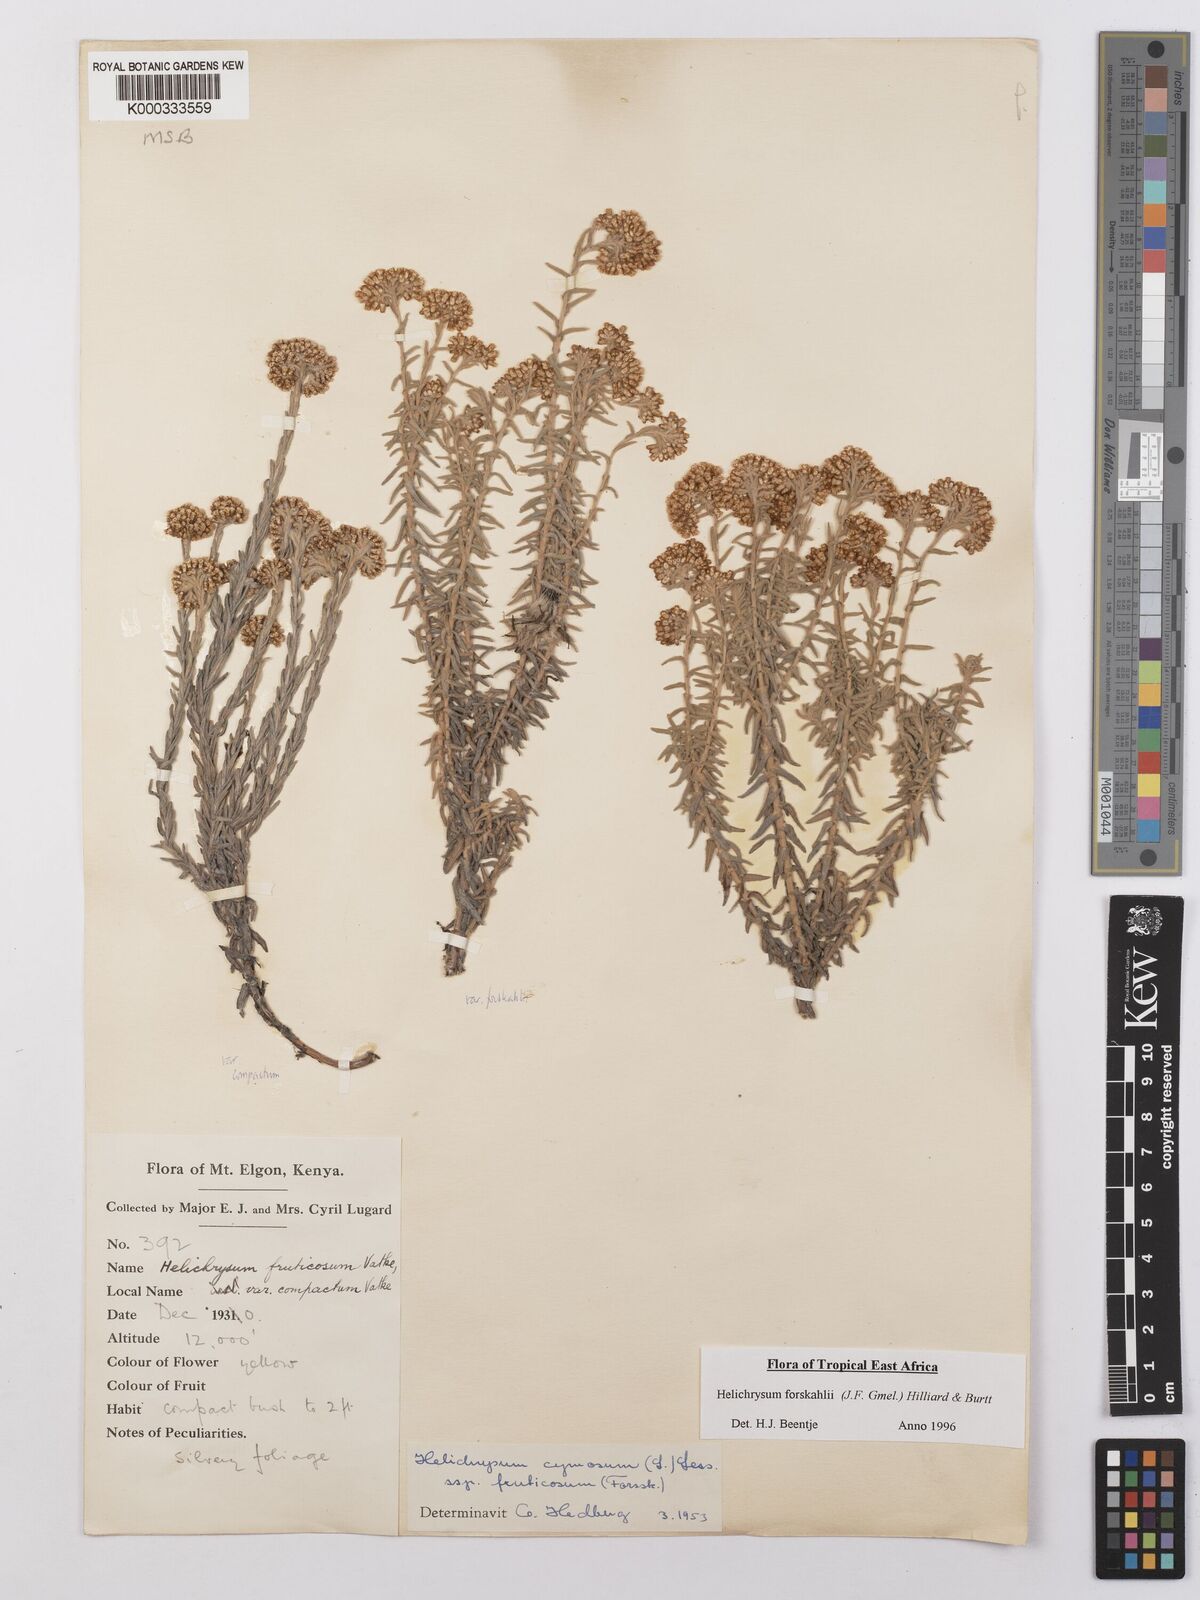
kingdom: Plantae
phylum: Tracheophyta
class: Magnoliopsida
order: Asterales
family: Asteraceae
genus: Helichrysum
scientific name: Helichrysum
